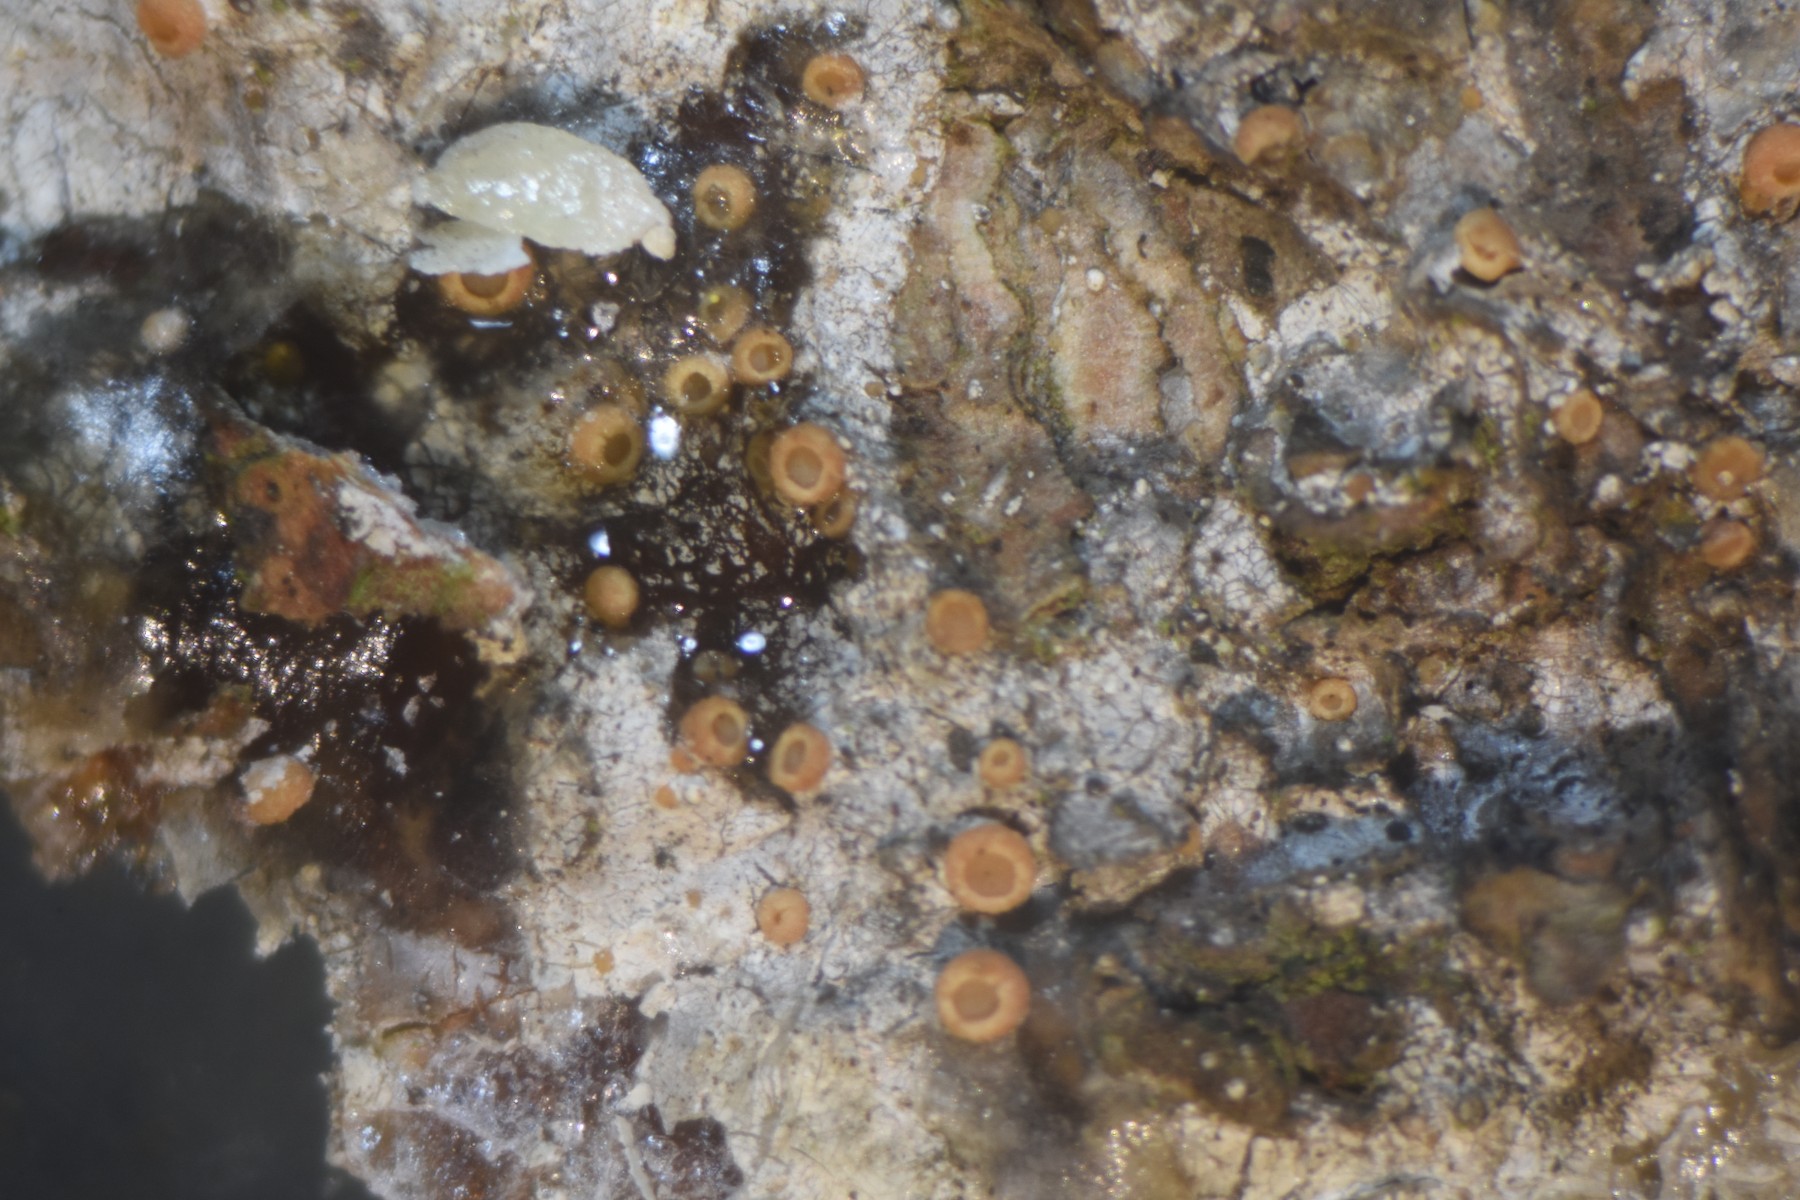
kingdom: Fungi
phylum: Ascomycota
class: Sareomycetes
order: Sareales
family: Sareaceae
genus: Sarea
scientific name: Sarea resinae
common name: orangegul harpiksskive
